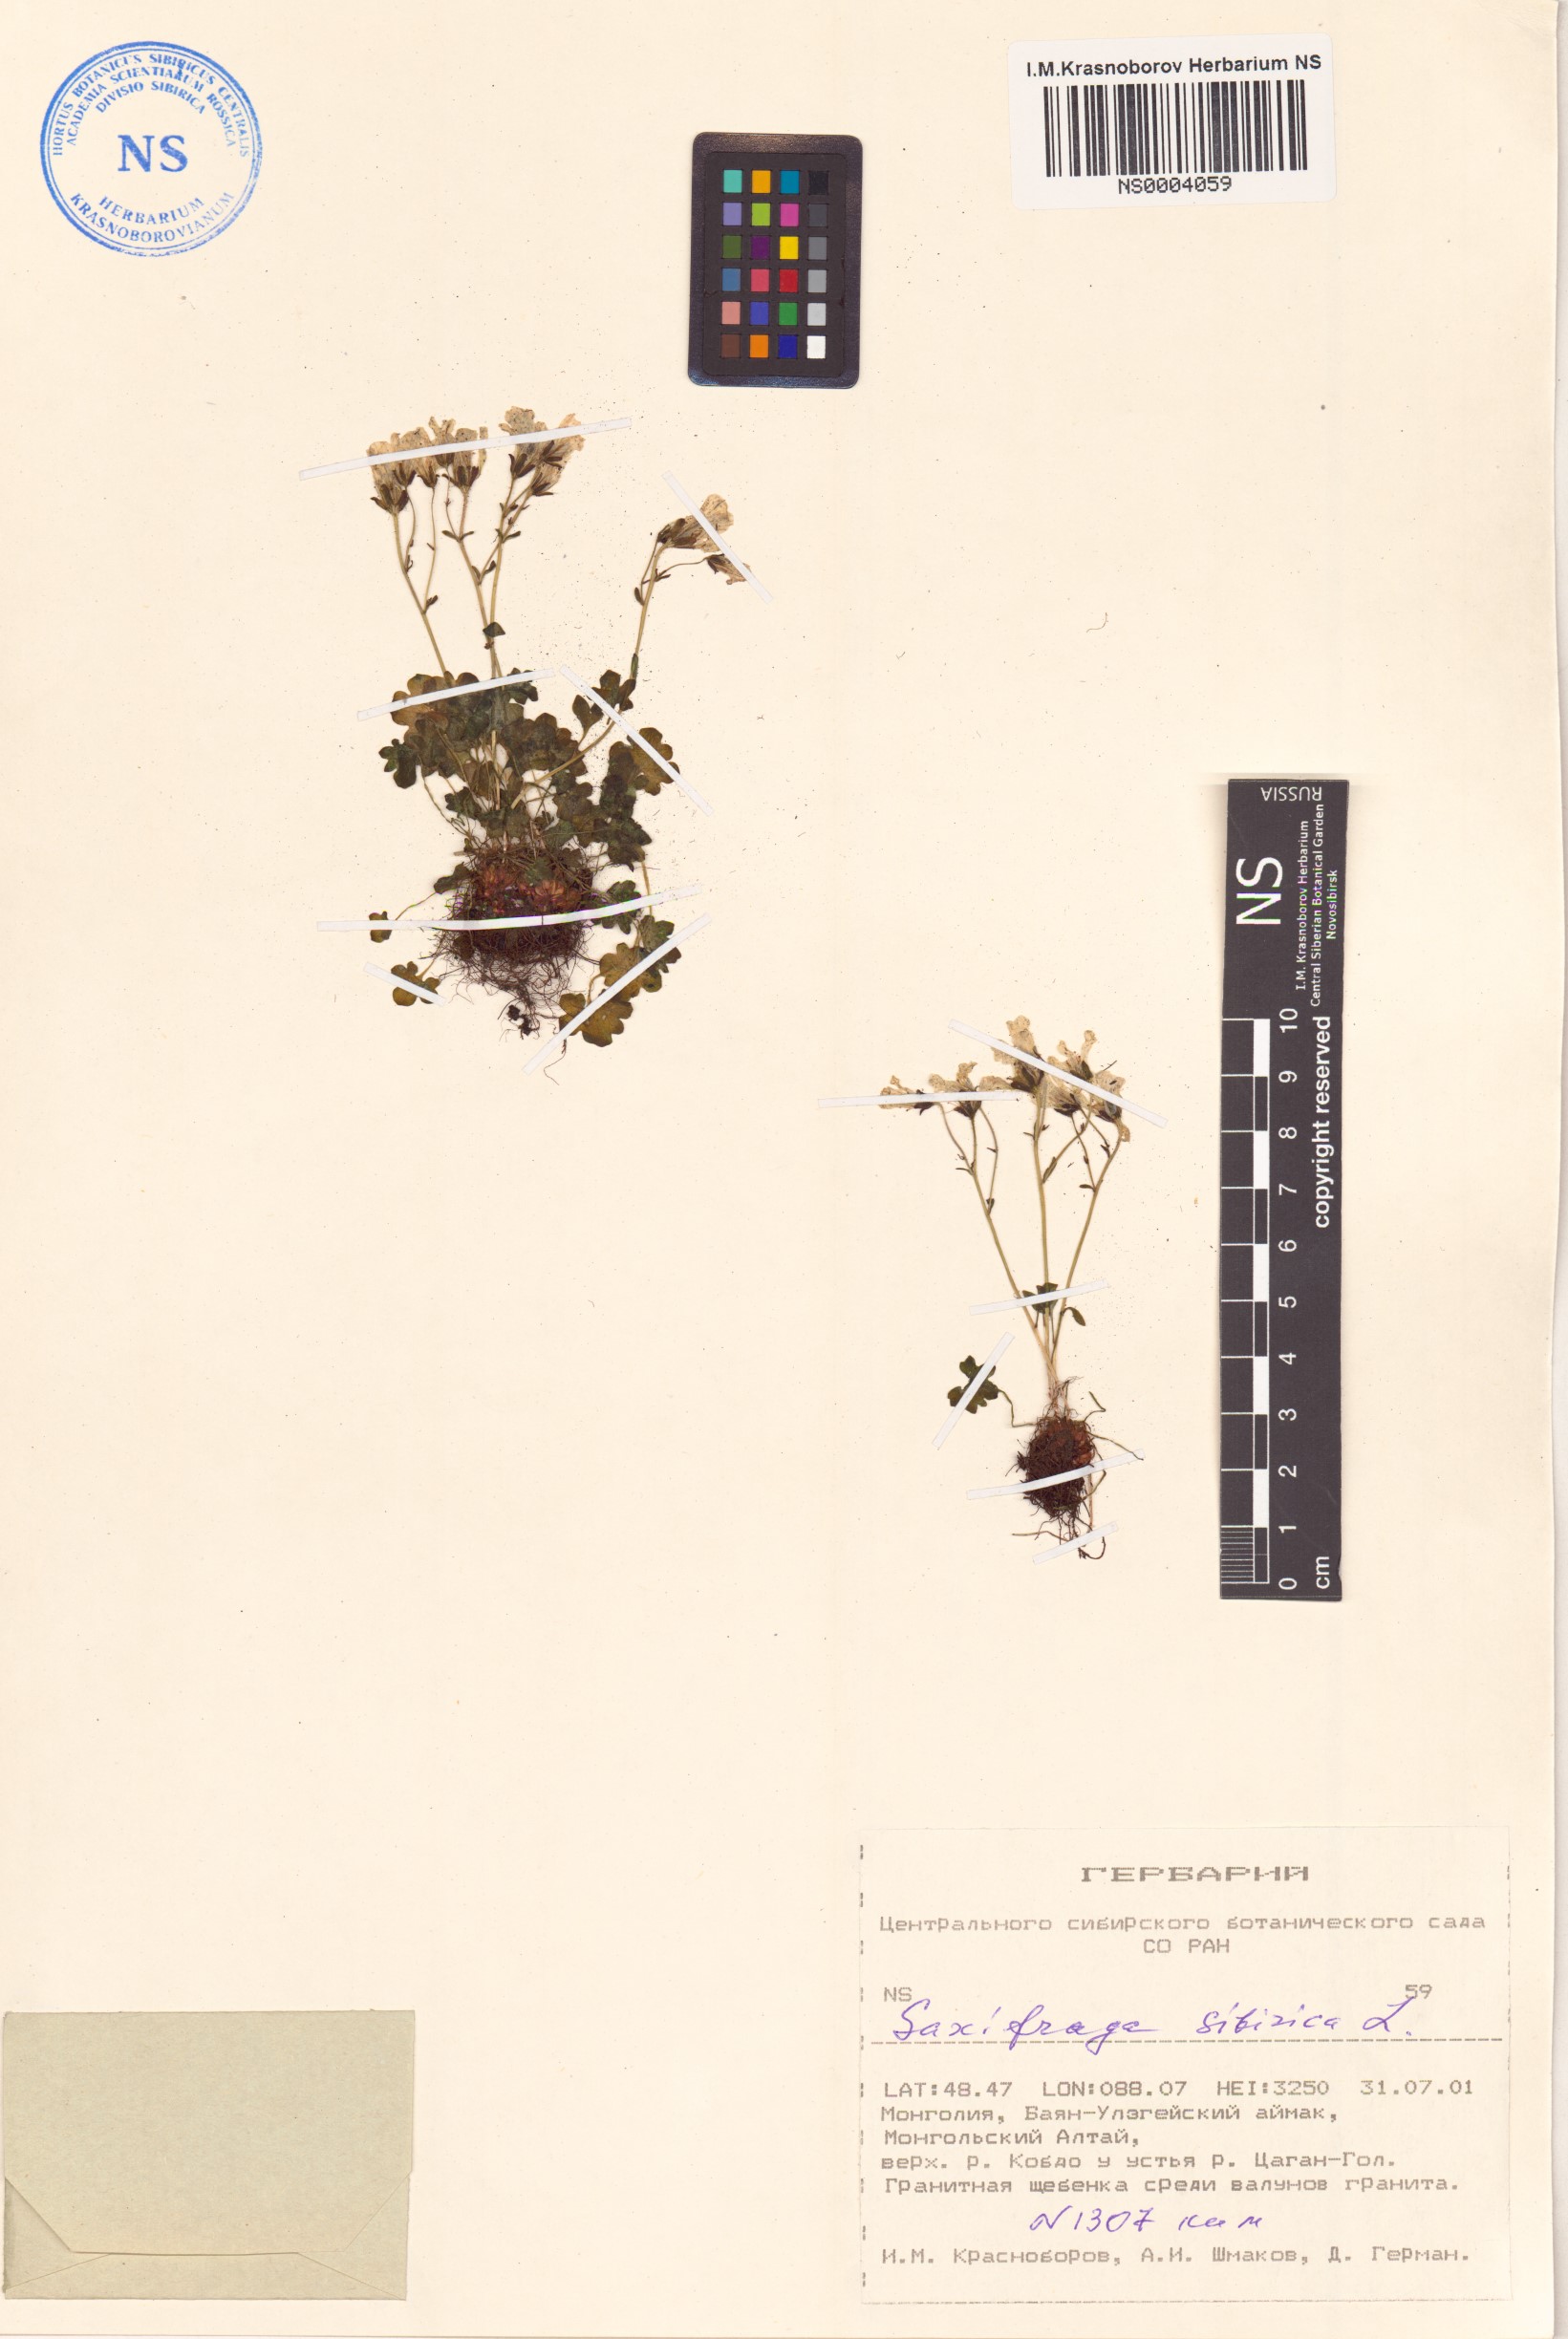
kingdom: Plantae
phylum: Tracheophyta
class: Magnoliopsida
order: Saxifragales
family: Saxifragaceae
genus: Saxifraga
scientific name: Saxifraga sibirica
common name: Siberian saxifrage
